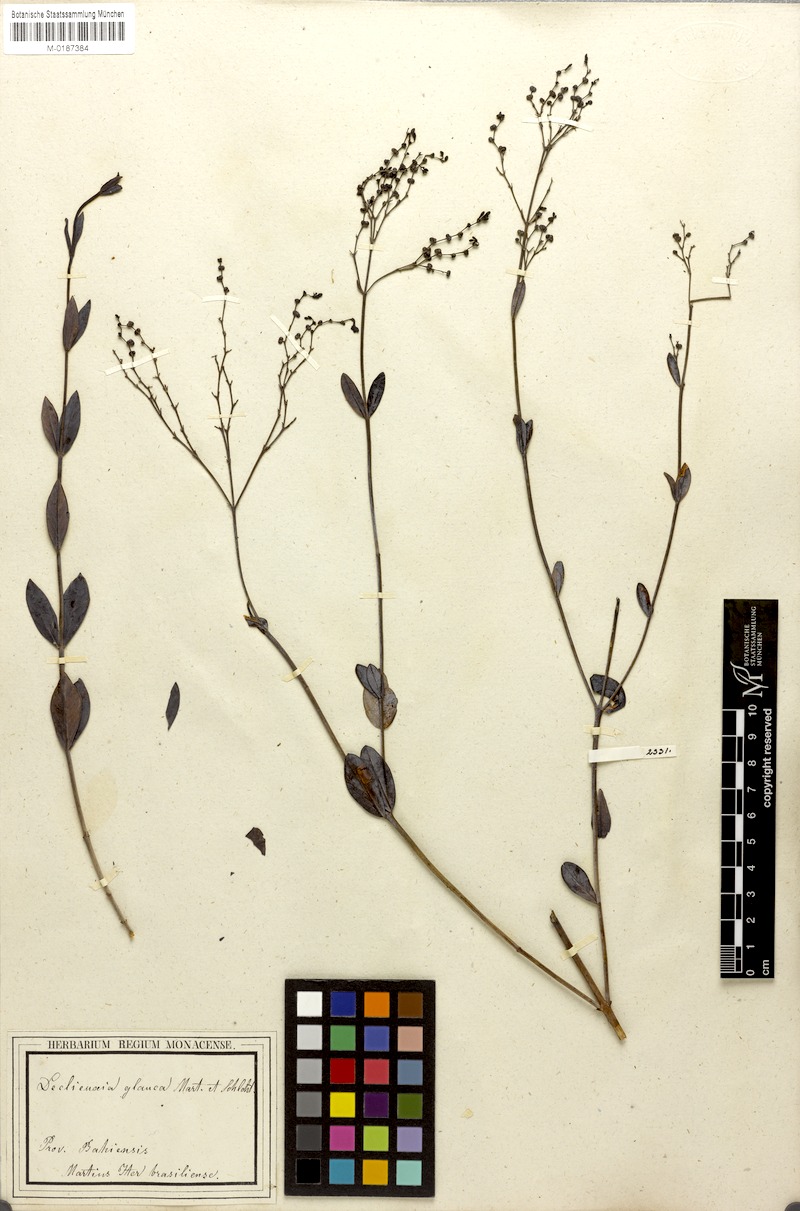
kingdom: Plantae
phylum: Tracheophyta
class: Magnoliopsida
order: Gentianales
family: Rubiaceae
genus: Declieuxia
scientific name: Declieuxia pruinosa
